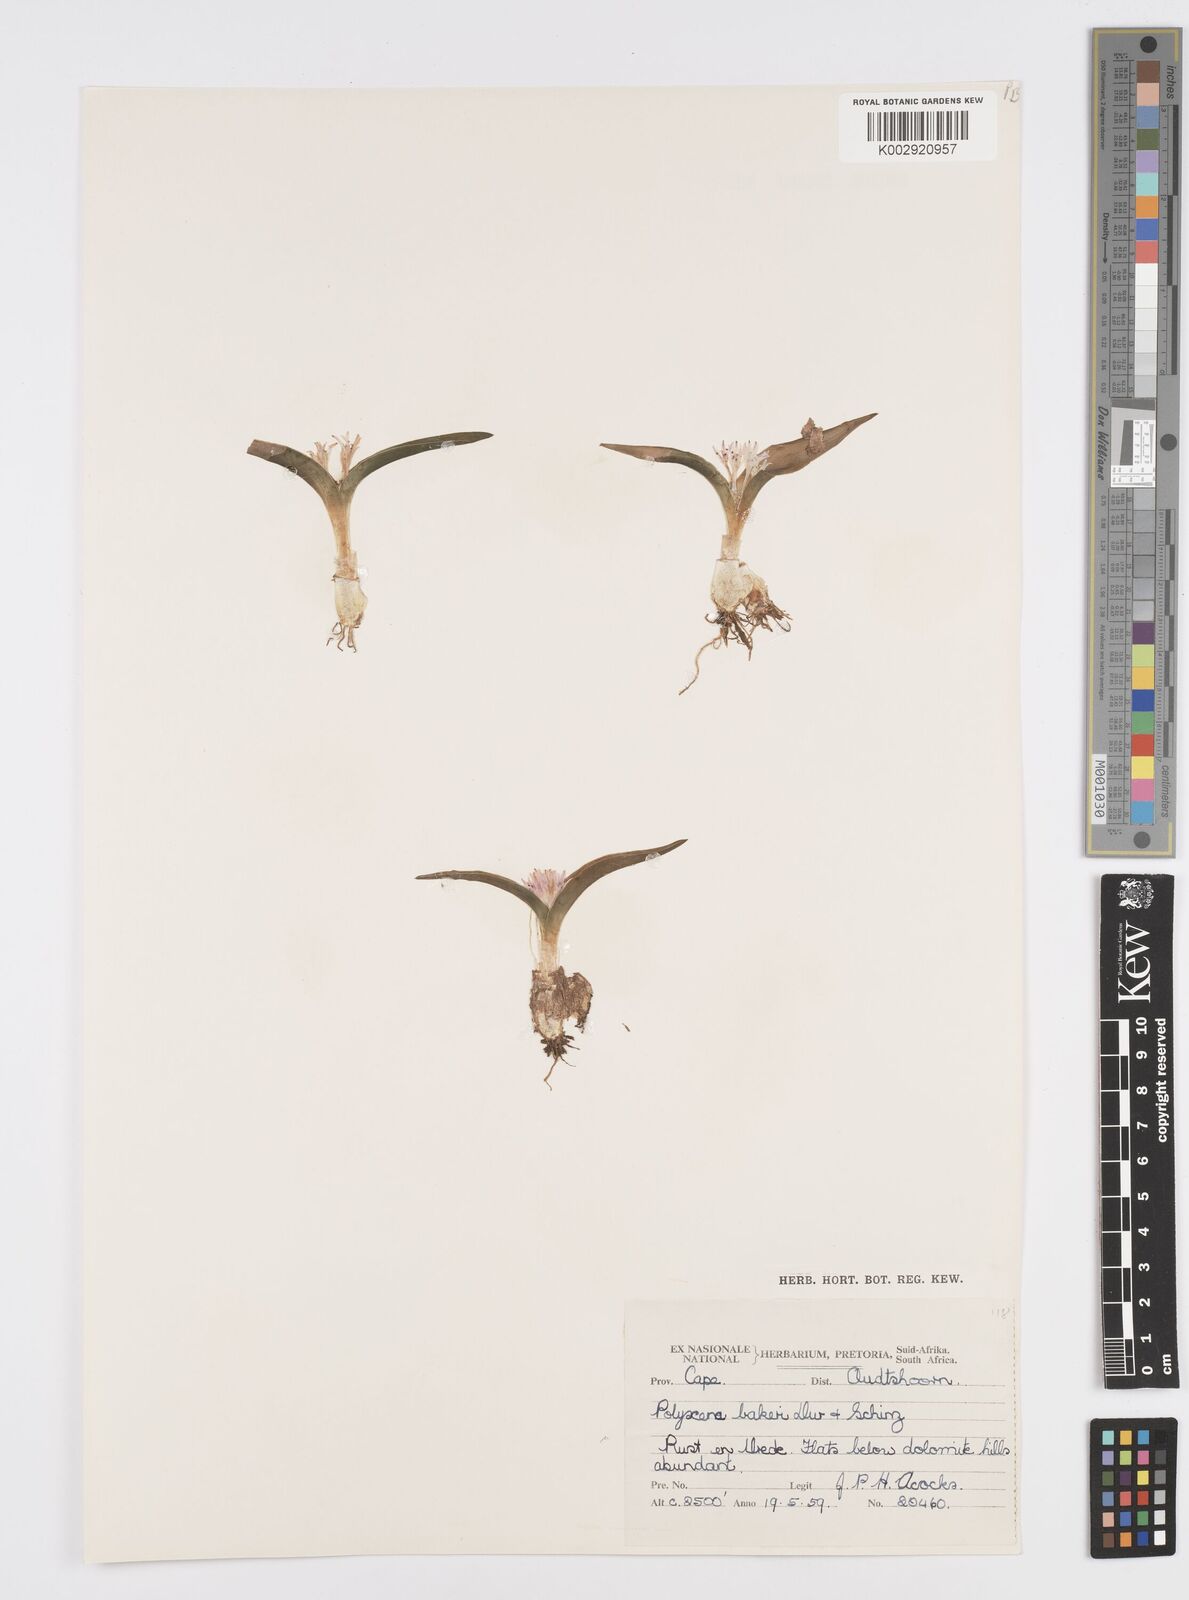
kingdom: Plantae
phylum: Tracheophyta
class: Liliopsida
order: Asparagales
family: Asparagaceae
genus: Lachenalia
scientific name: Lachenalia ensifolia
